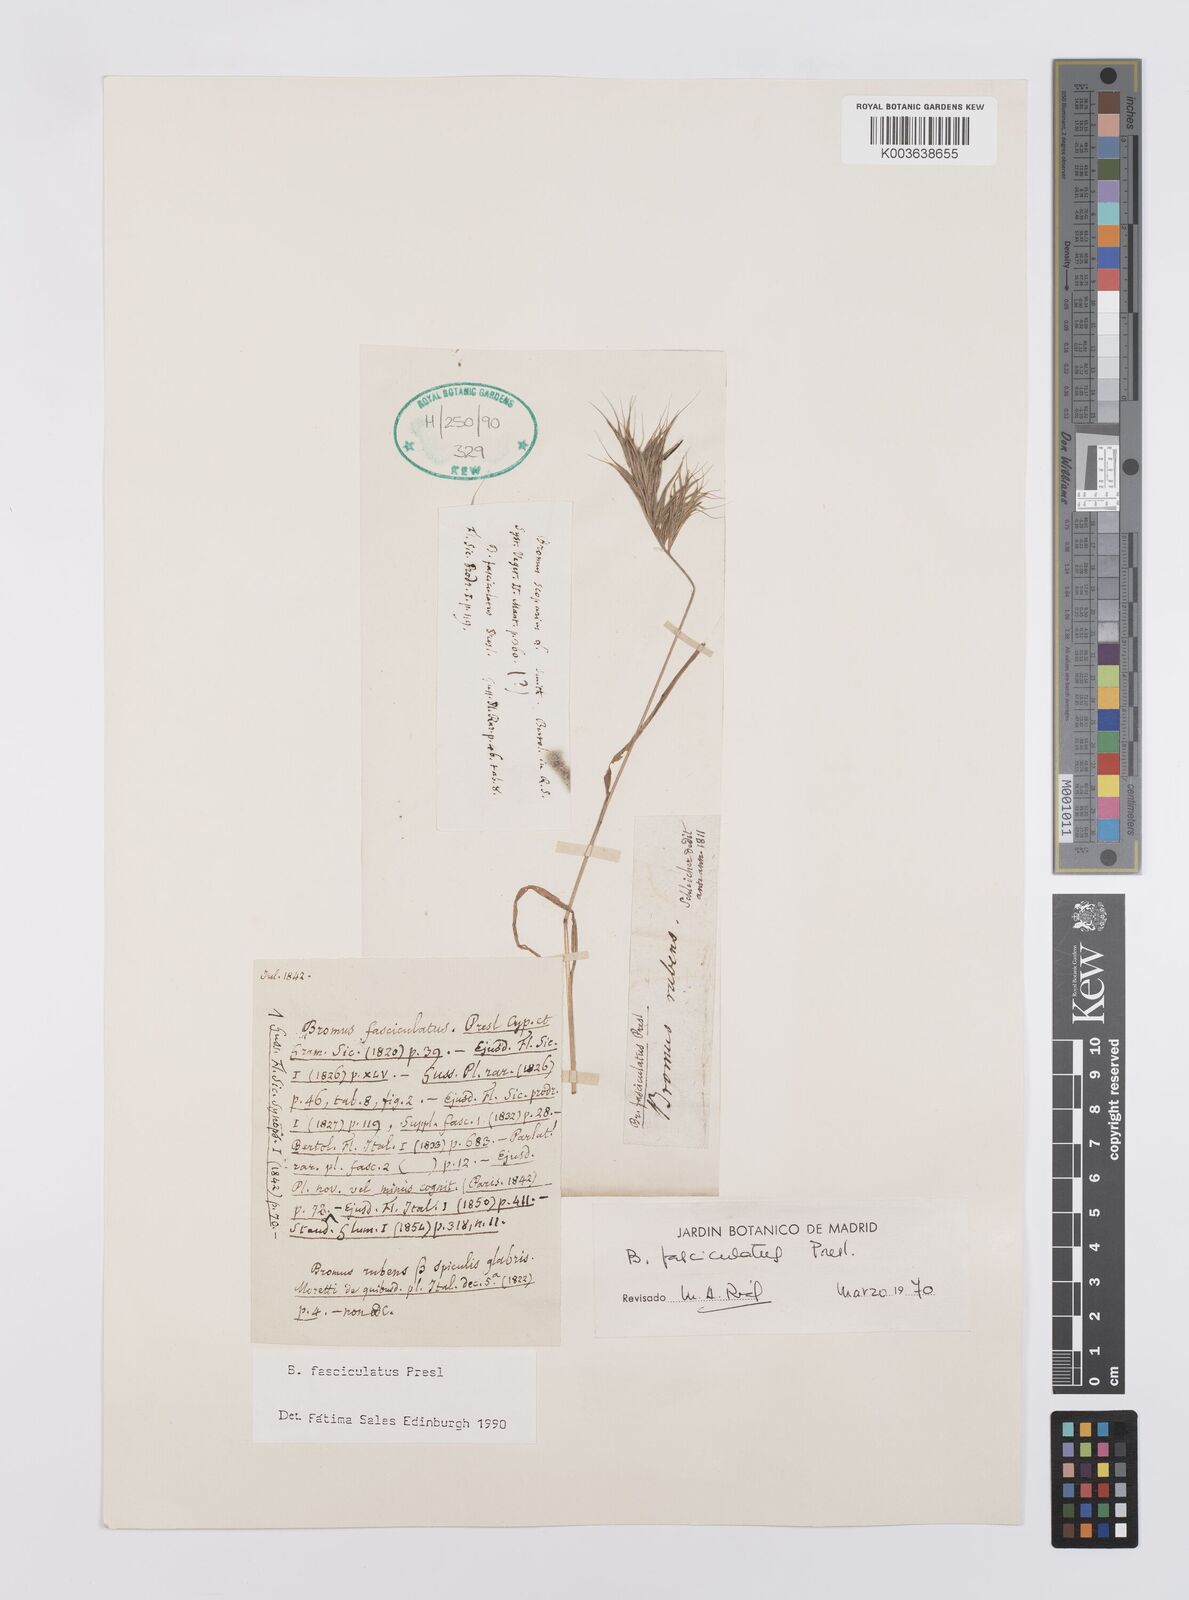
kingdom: Plantae
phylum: Tracheophyta
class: Liliopsida
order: Poales
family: Poaceae
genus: Bromus
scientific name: Bromus fasciculatus
